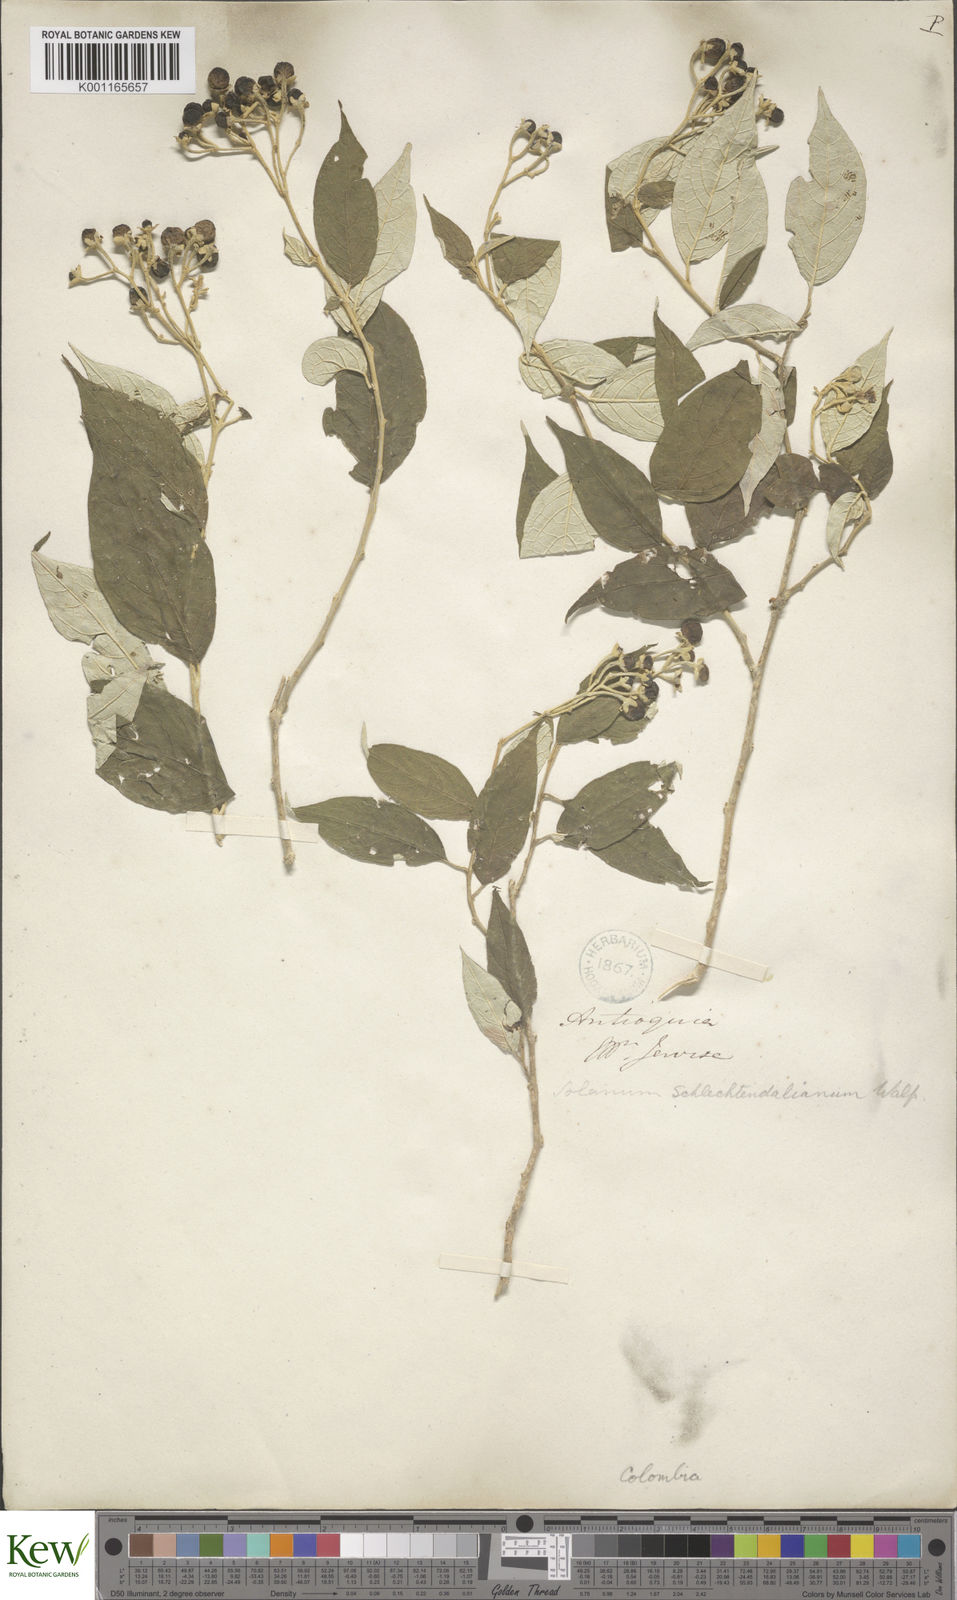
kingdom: Plantae
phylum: Tracheophyta
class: Magnoliopsida
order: Solanales
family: Solanaceae
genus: Solanum
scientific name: Solanum schlechtendalianum
